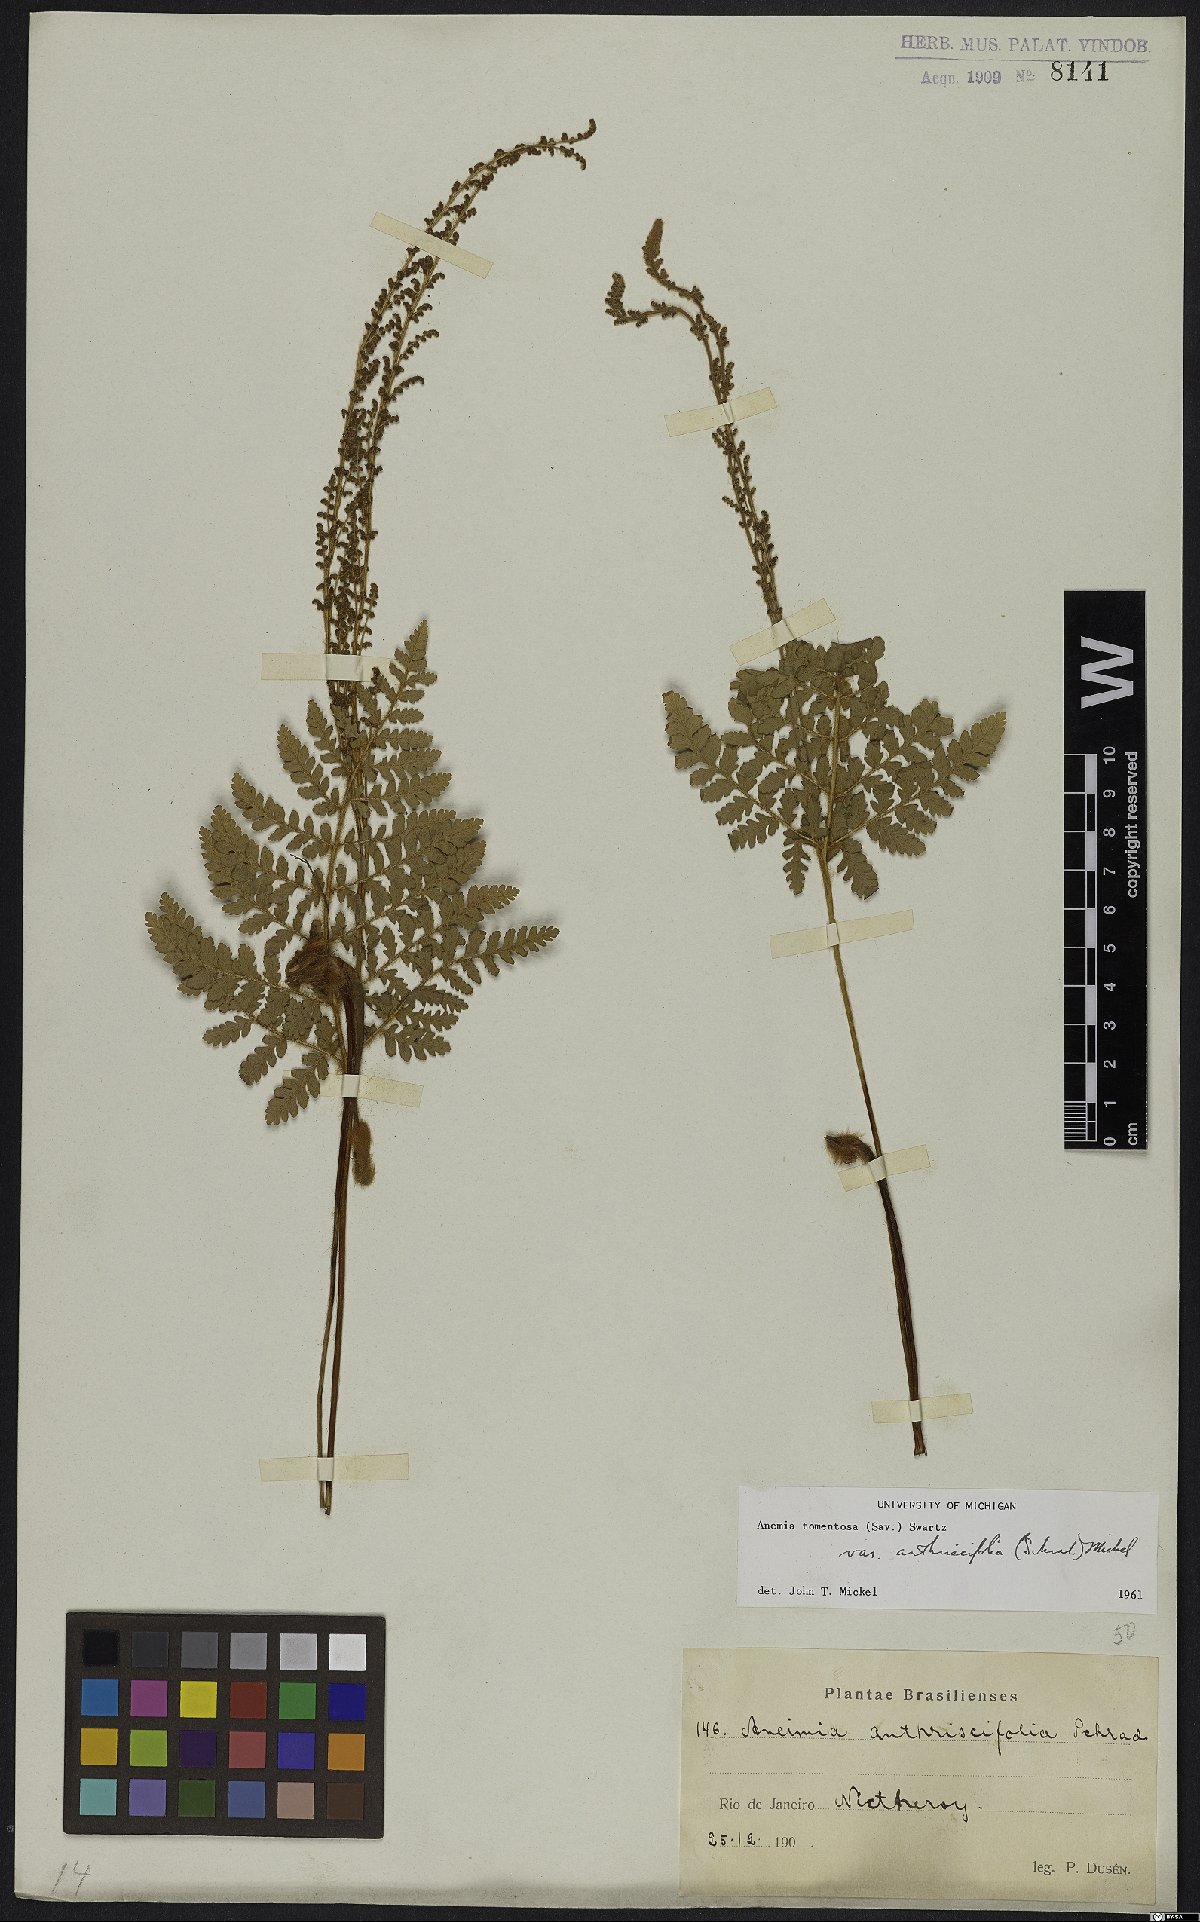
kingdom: Plantae
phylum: Tracheophyta
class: Polypodiopsida
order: Schizaeales
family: Anemiaceae
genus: Anemia
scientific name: Anemia tomentosa
